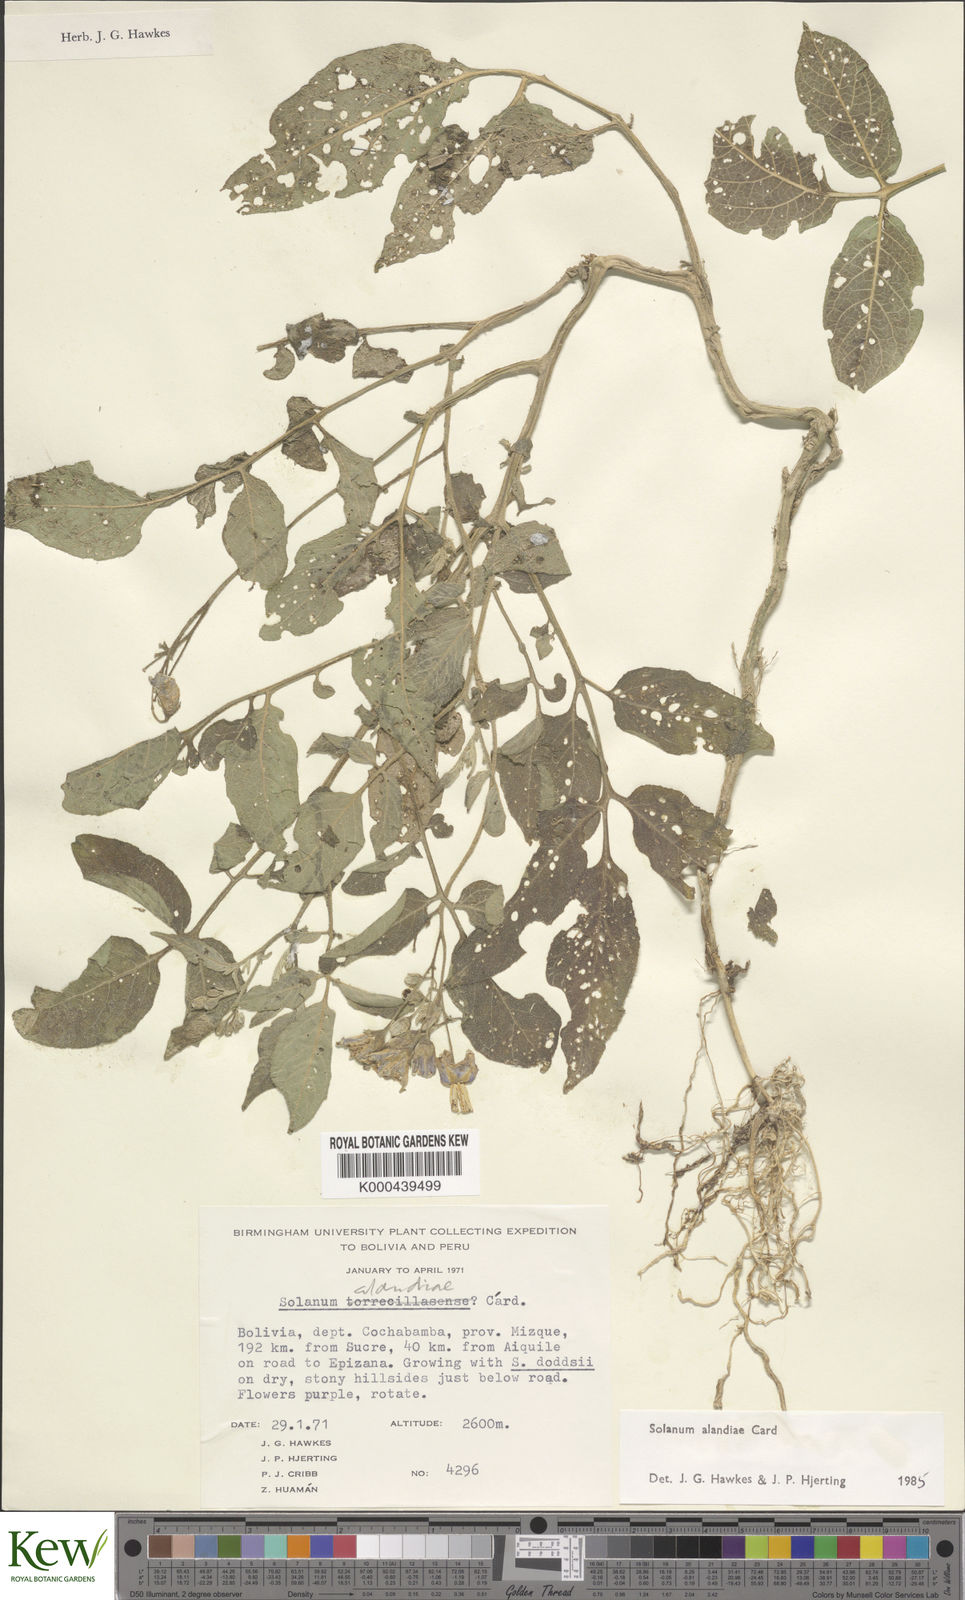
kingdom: Plantae
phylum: Tracheophyta
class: Magnoliopsida
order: Solanales
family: Solanaceae
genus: Solanum
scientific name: Solanum brevicaule
